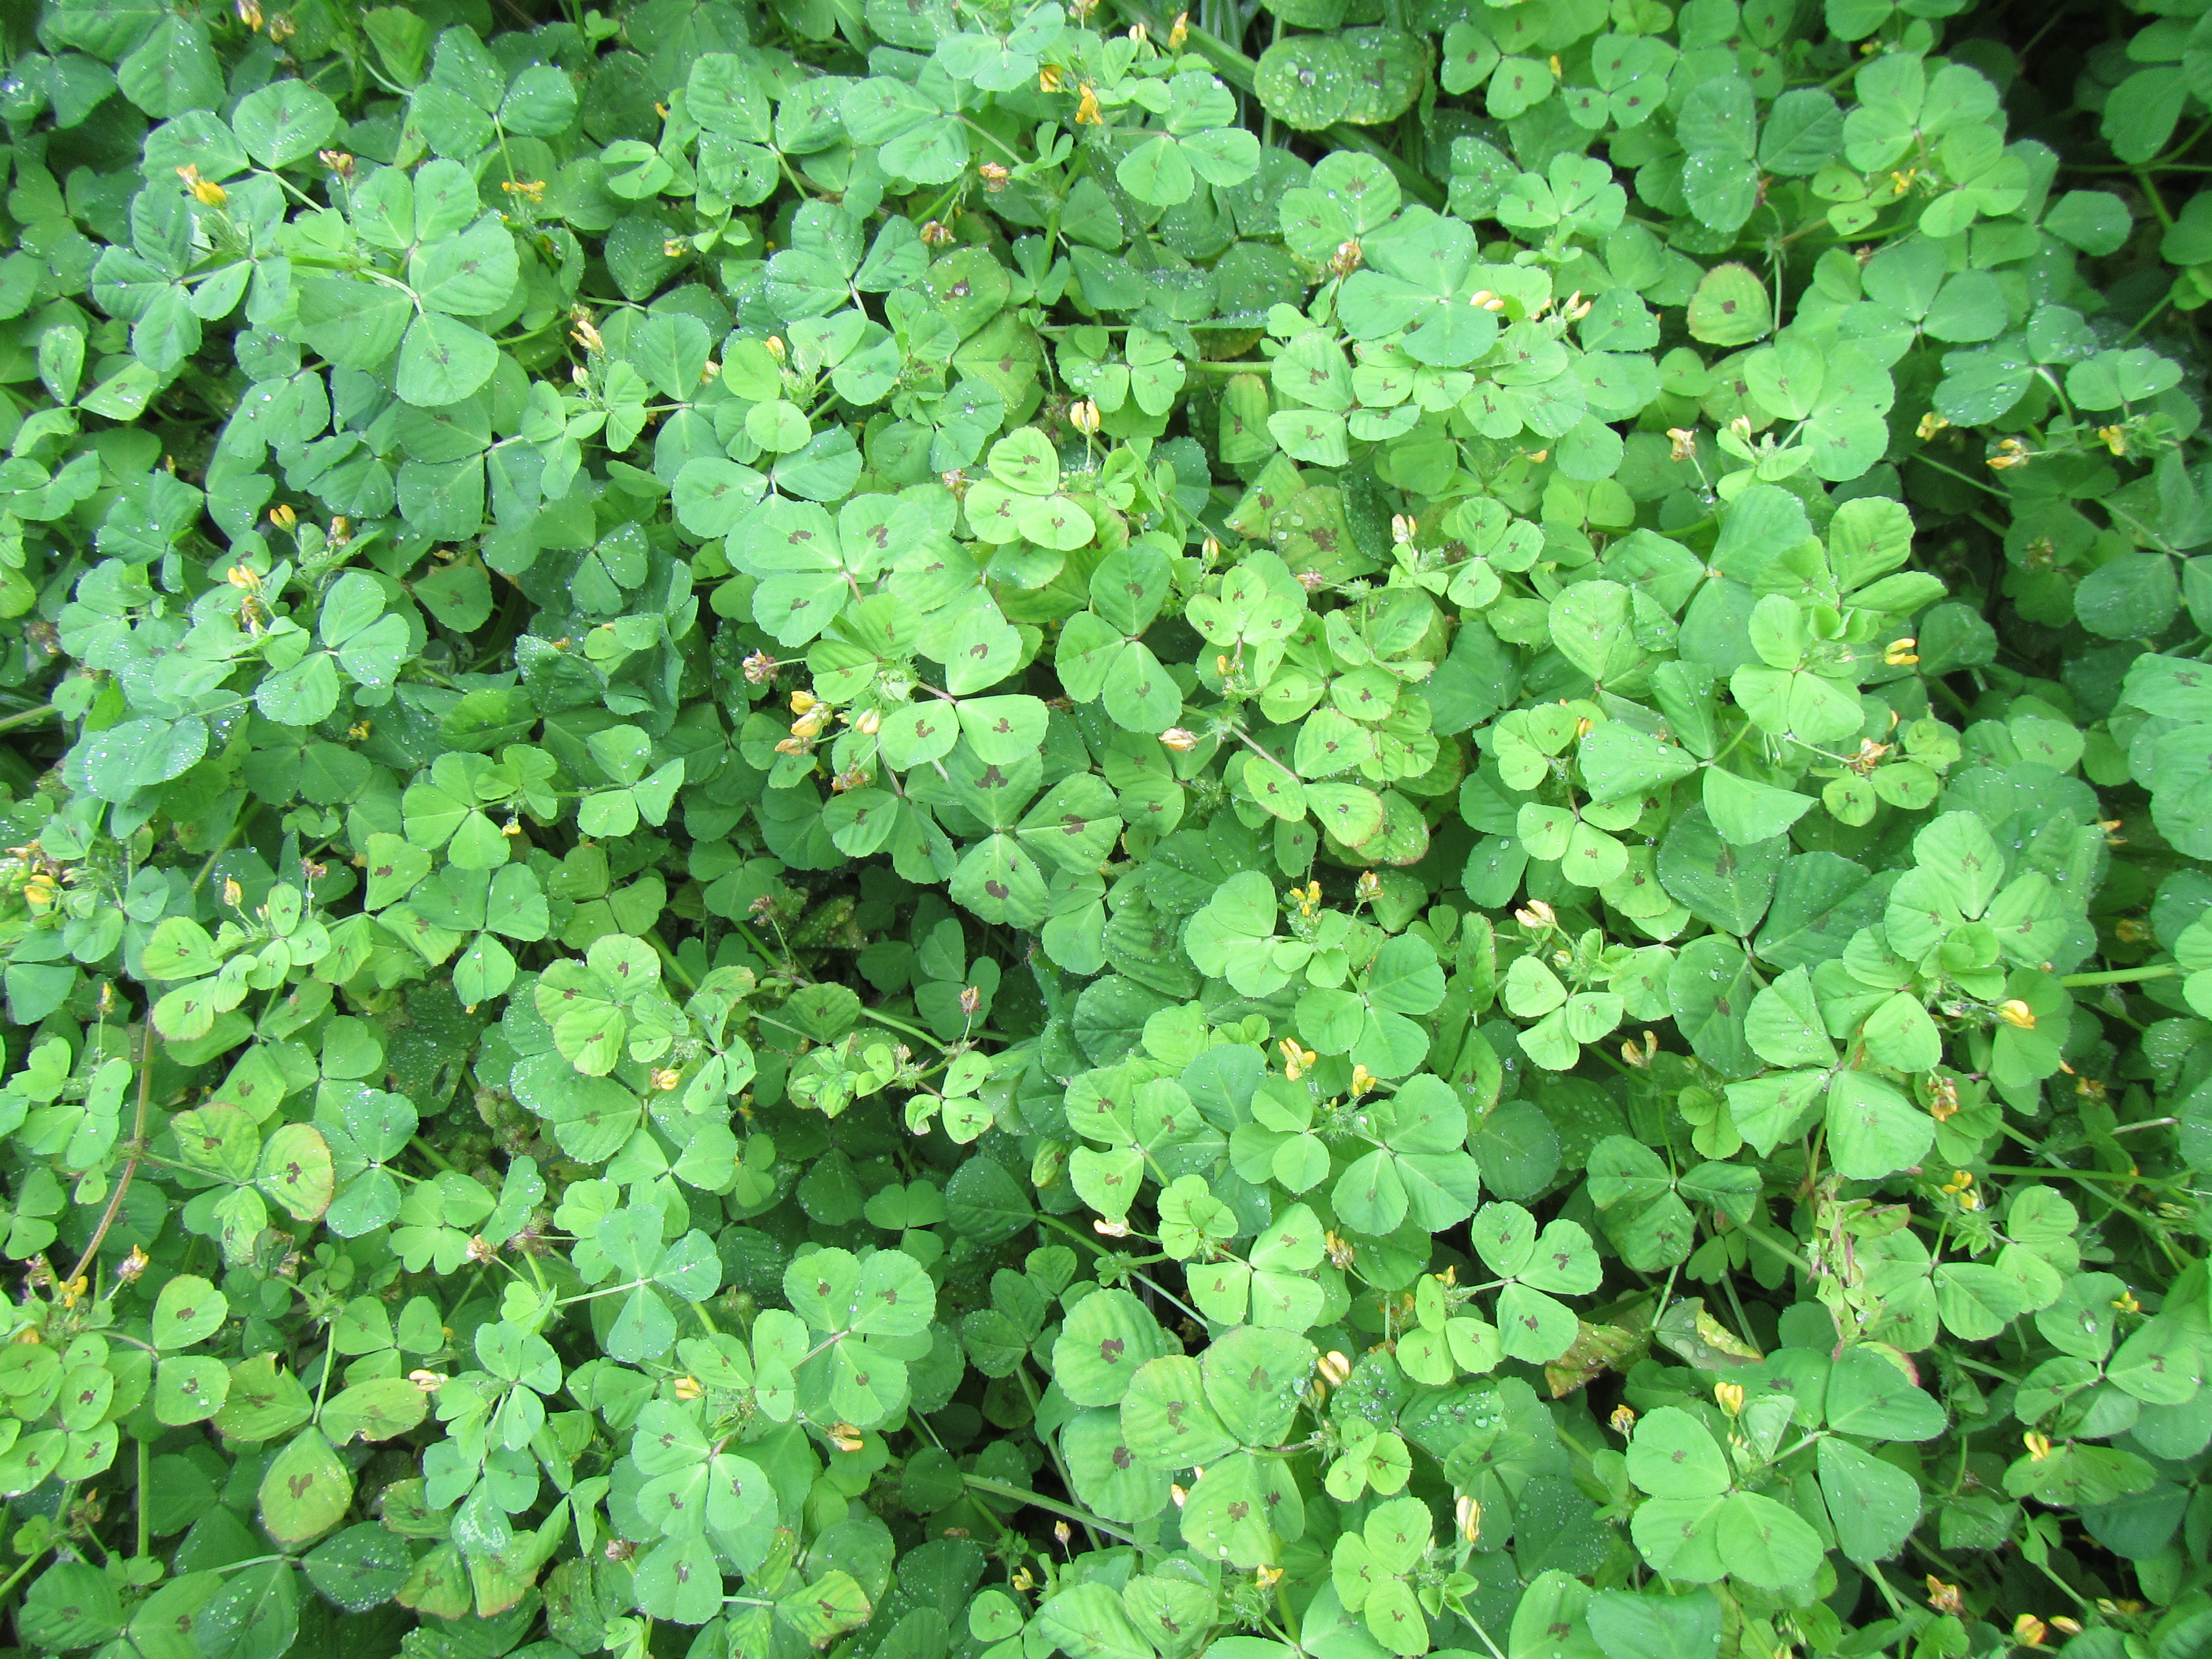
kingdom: Plantae
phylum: Tracheophyta
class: Magnoliopsida
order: Fabales
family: Fabaceae
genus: Medicago
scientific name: Medicago arabica
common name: Spotted medick
